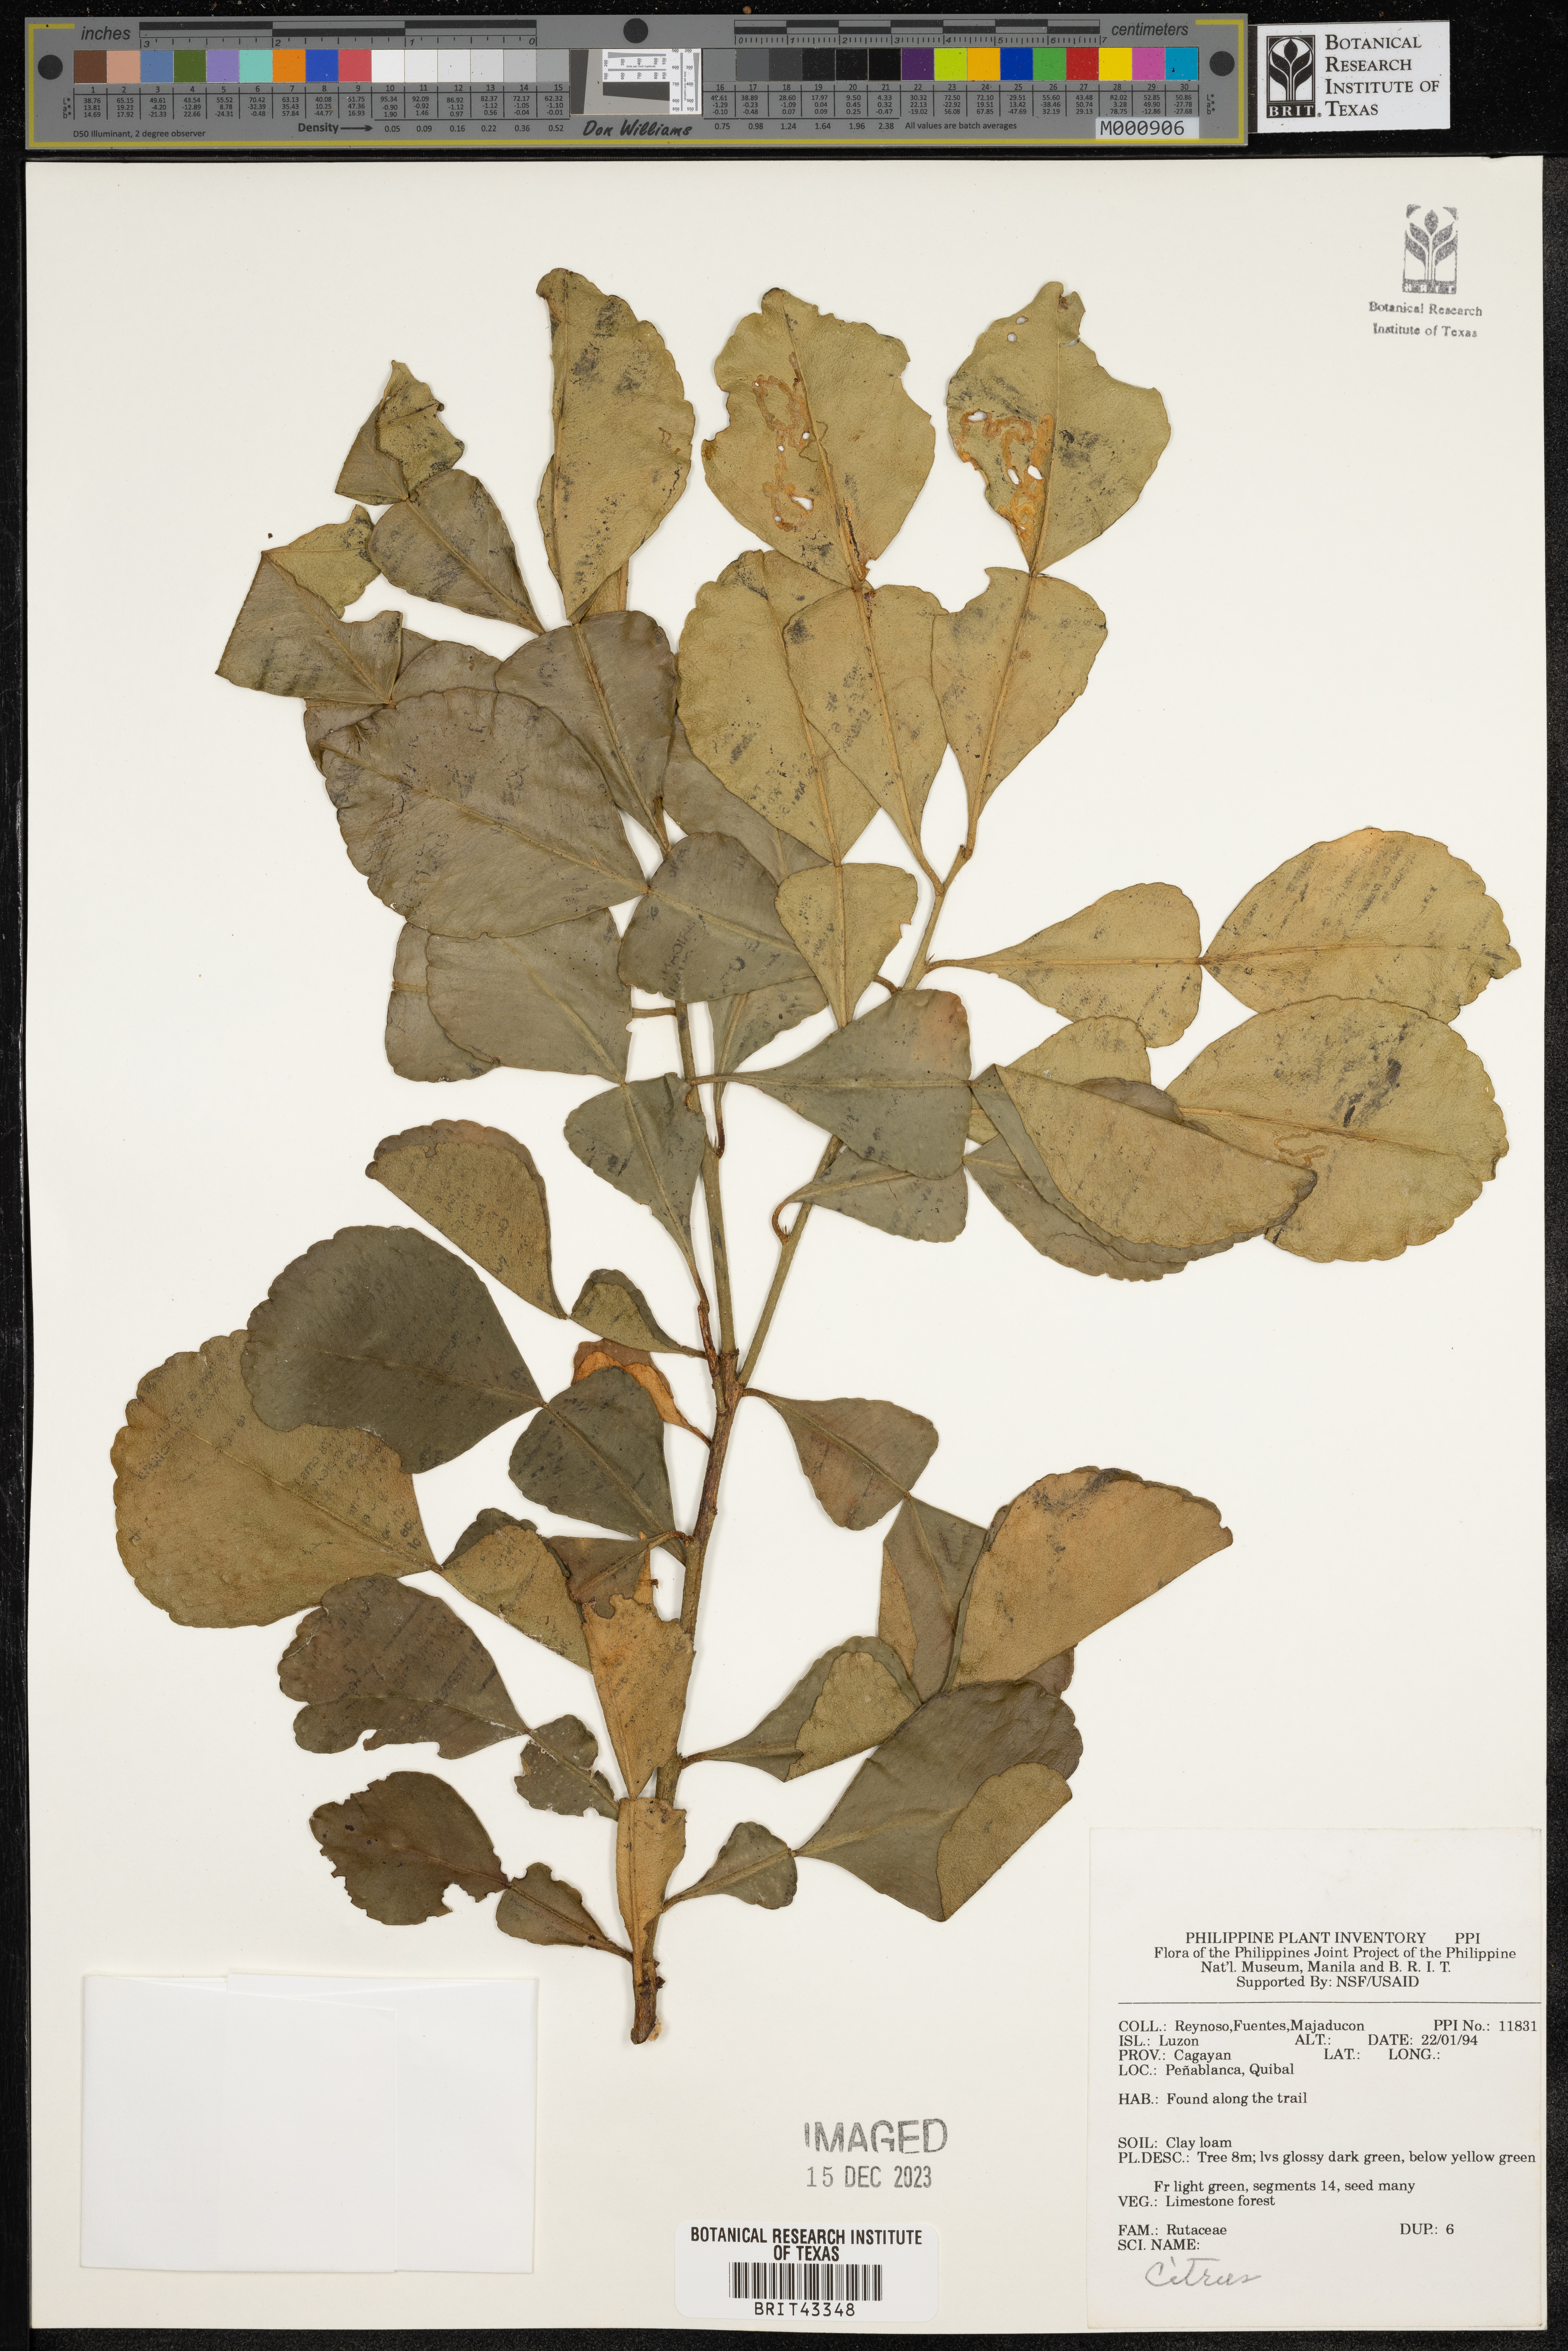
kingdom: Plantae
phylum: Tracheophyta
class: Magnoliopsida
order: Sapindales
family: Rutaceae
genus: Citrus
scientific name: Citrus
